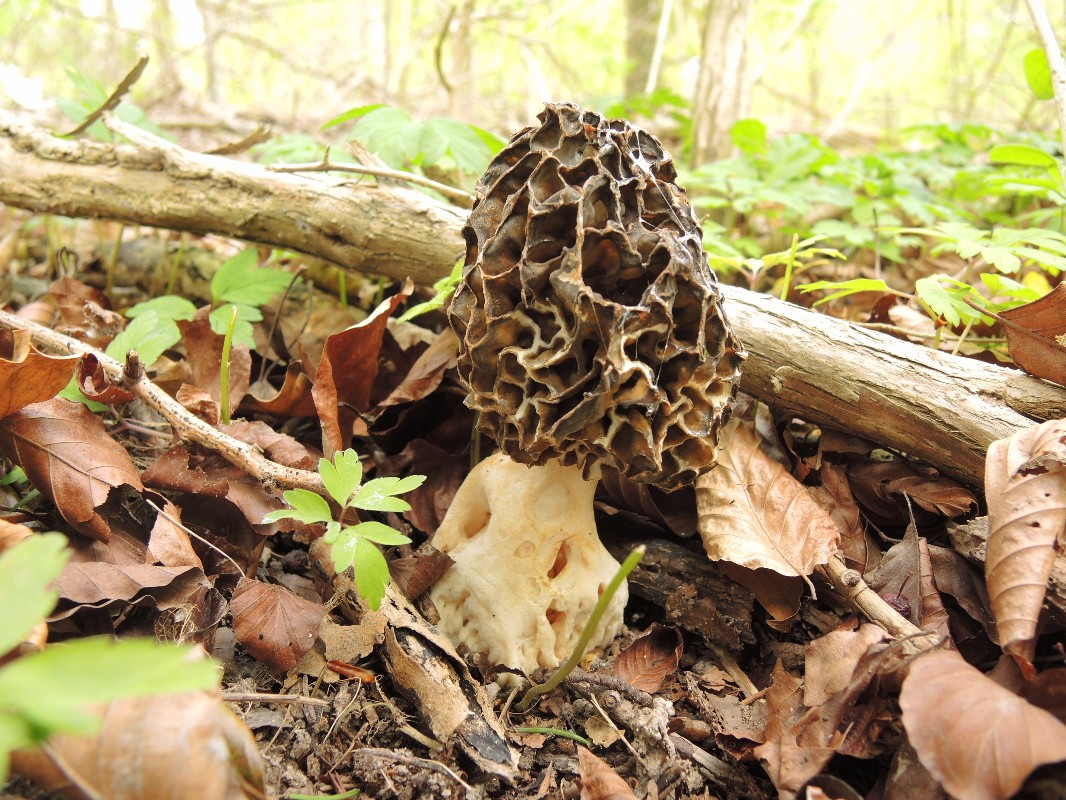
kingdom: Fungi
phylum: Ascomycota
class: Pezizomycetes
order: Pezizales
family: Morchellaceae
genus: Morchella
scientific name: Morchella esculenta
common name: spiselig morkel
